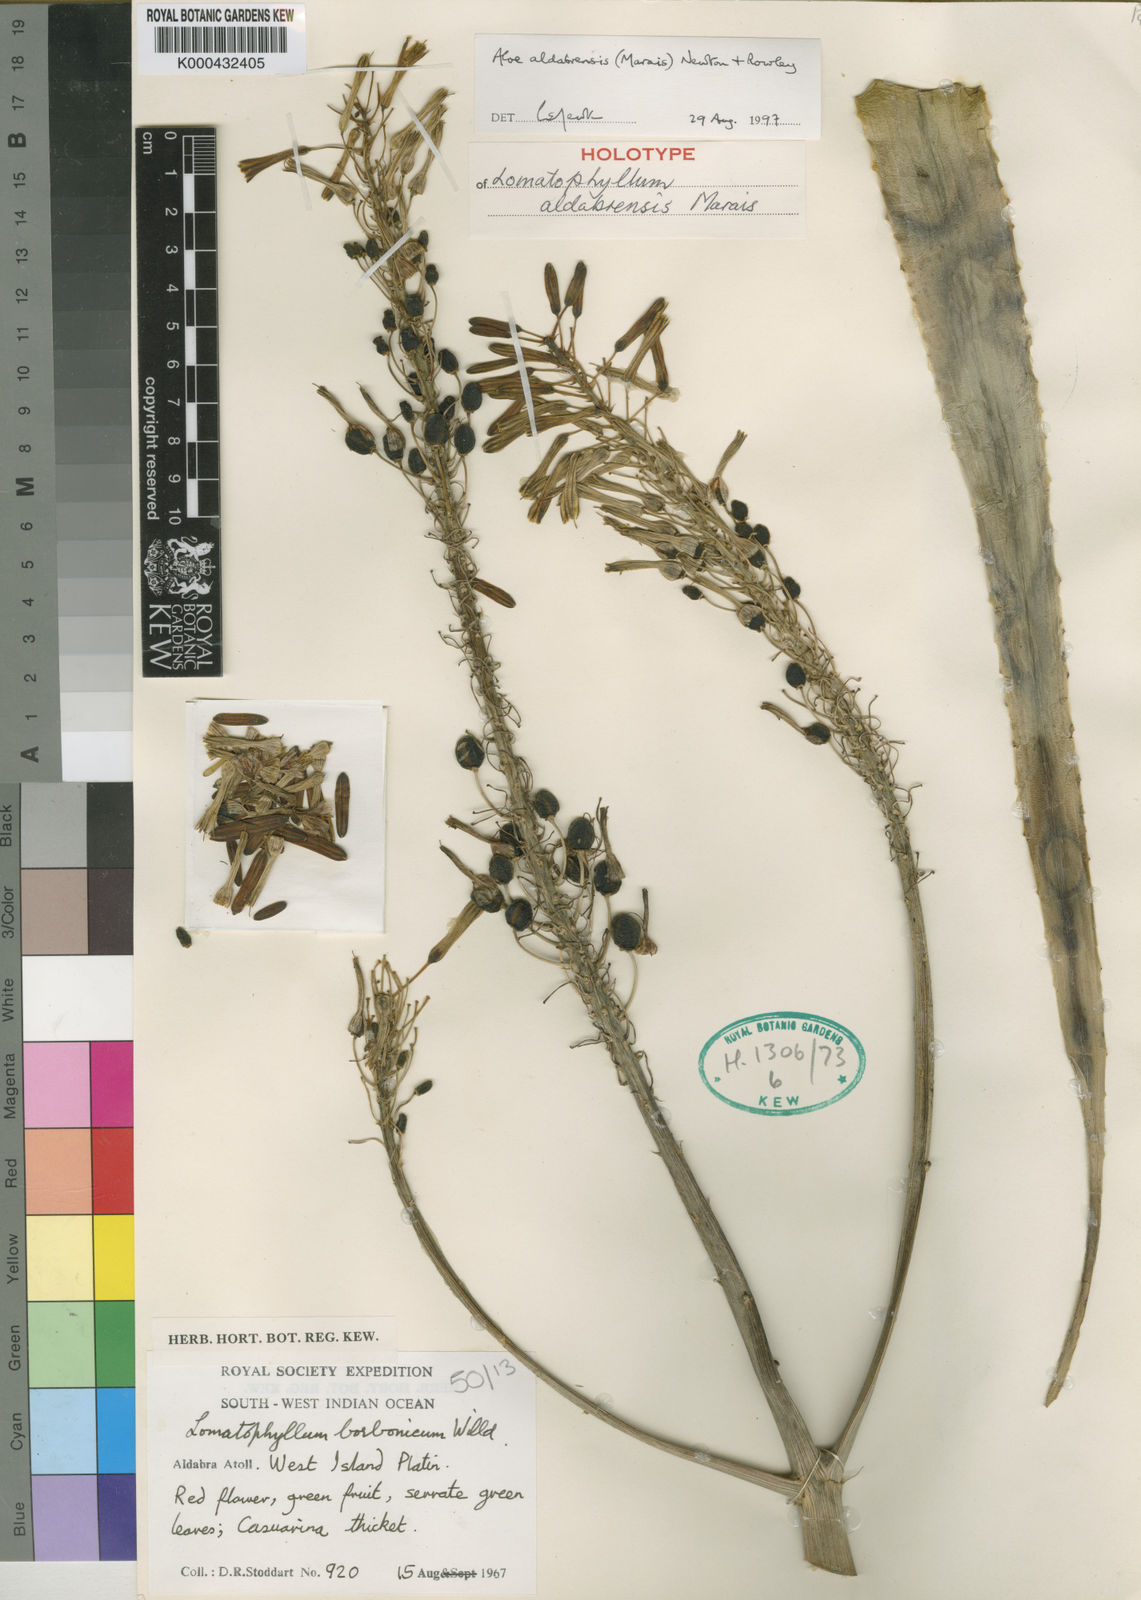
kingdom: Plantae
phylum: Tracheophyta
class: Liliopsida
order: Asparagales
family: Asphodelaceae
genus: Aloe
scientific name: Aloe
